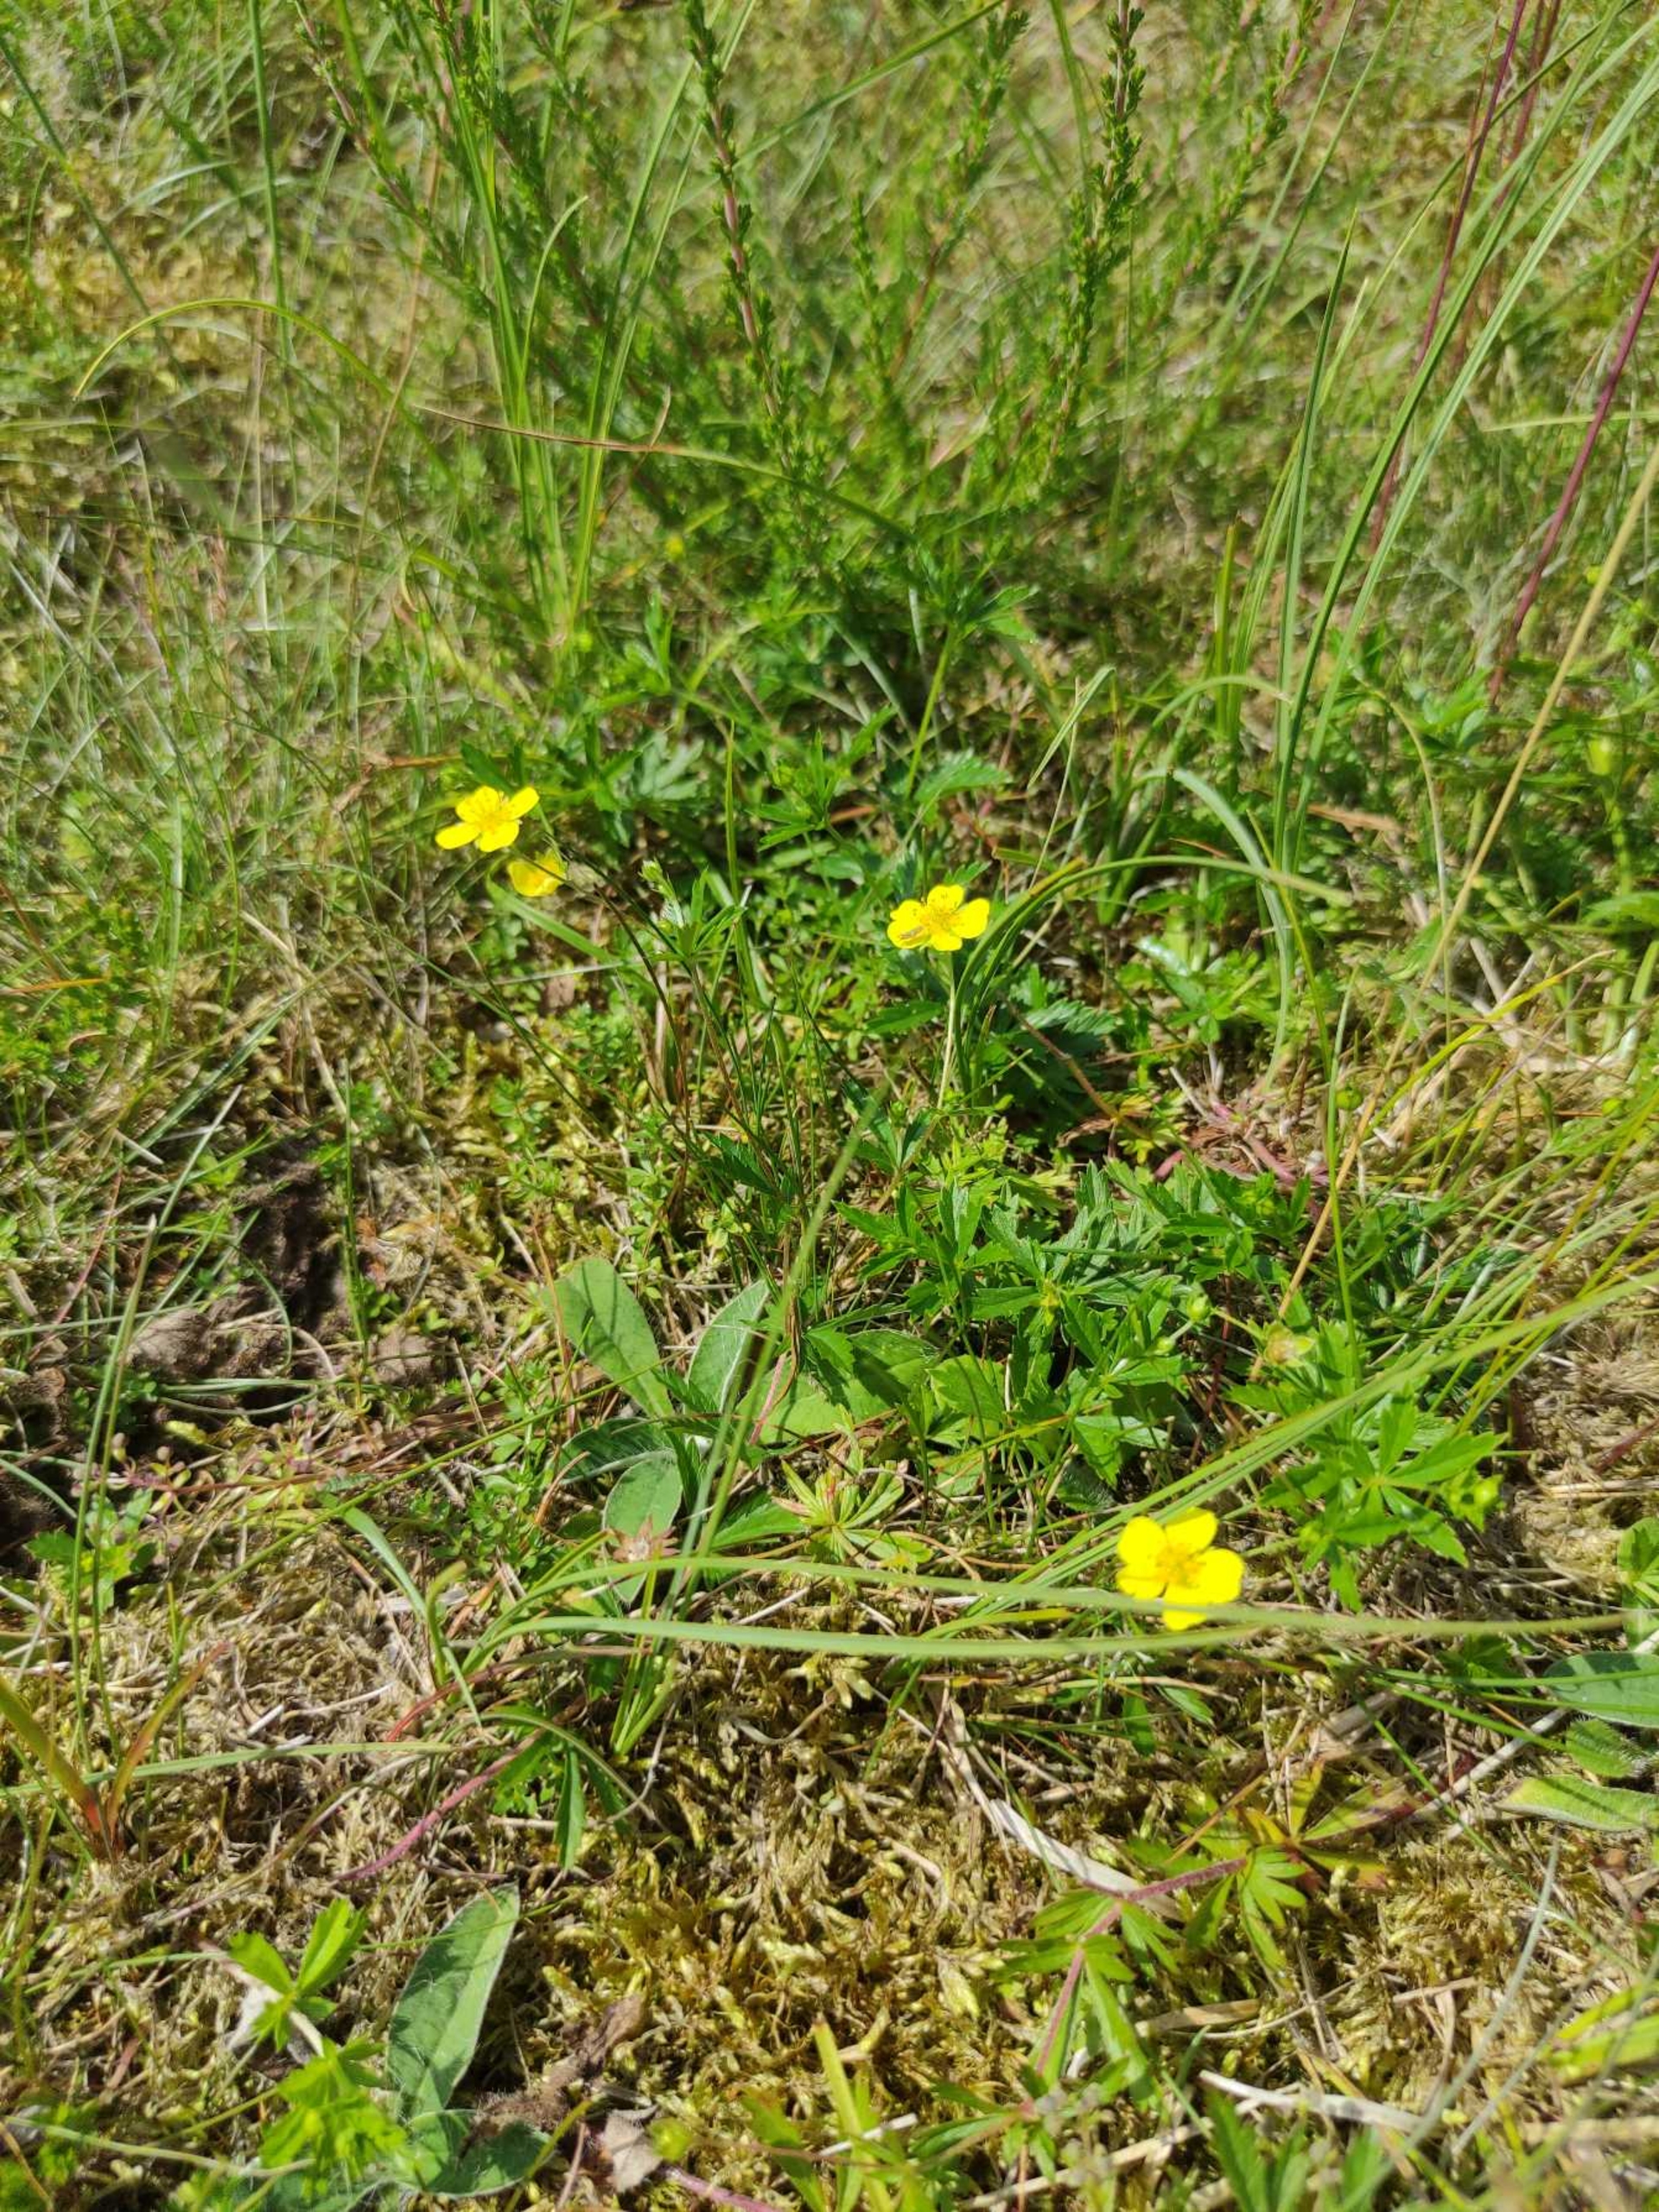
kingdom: Plantae
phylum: Tracheophyta
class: Magnoliopsida
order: Rosales
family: Rosaceae
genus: Potentilla
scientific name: Potentilla erecta
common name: Tormentil
